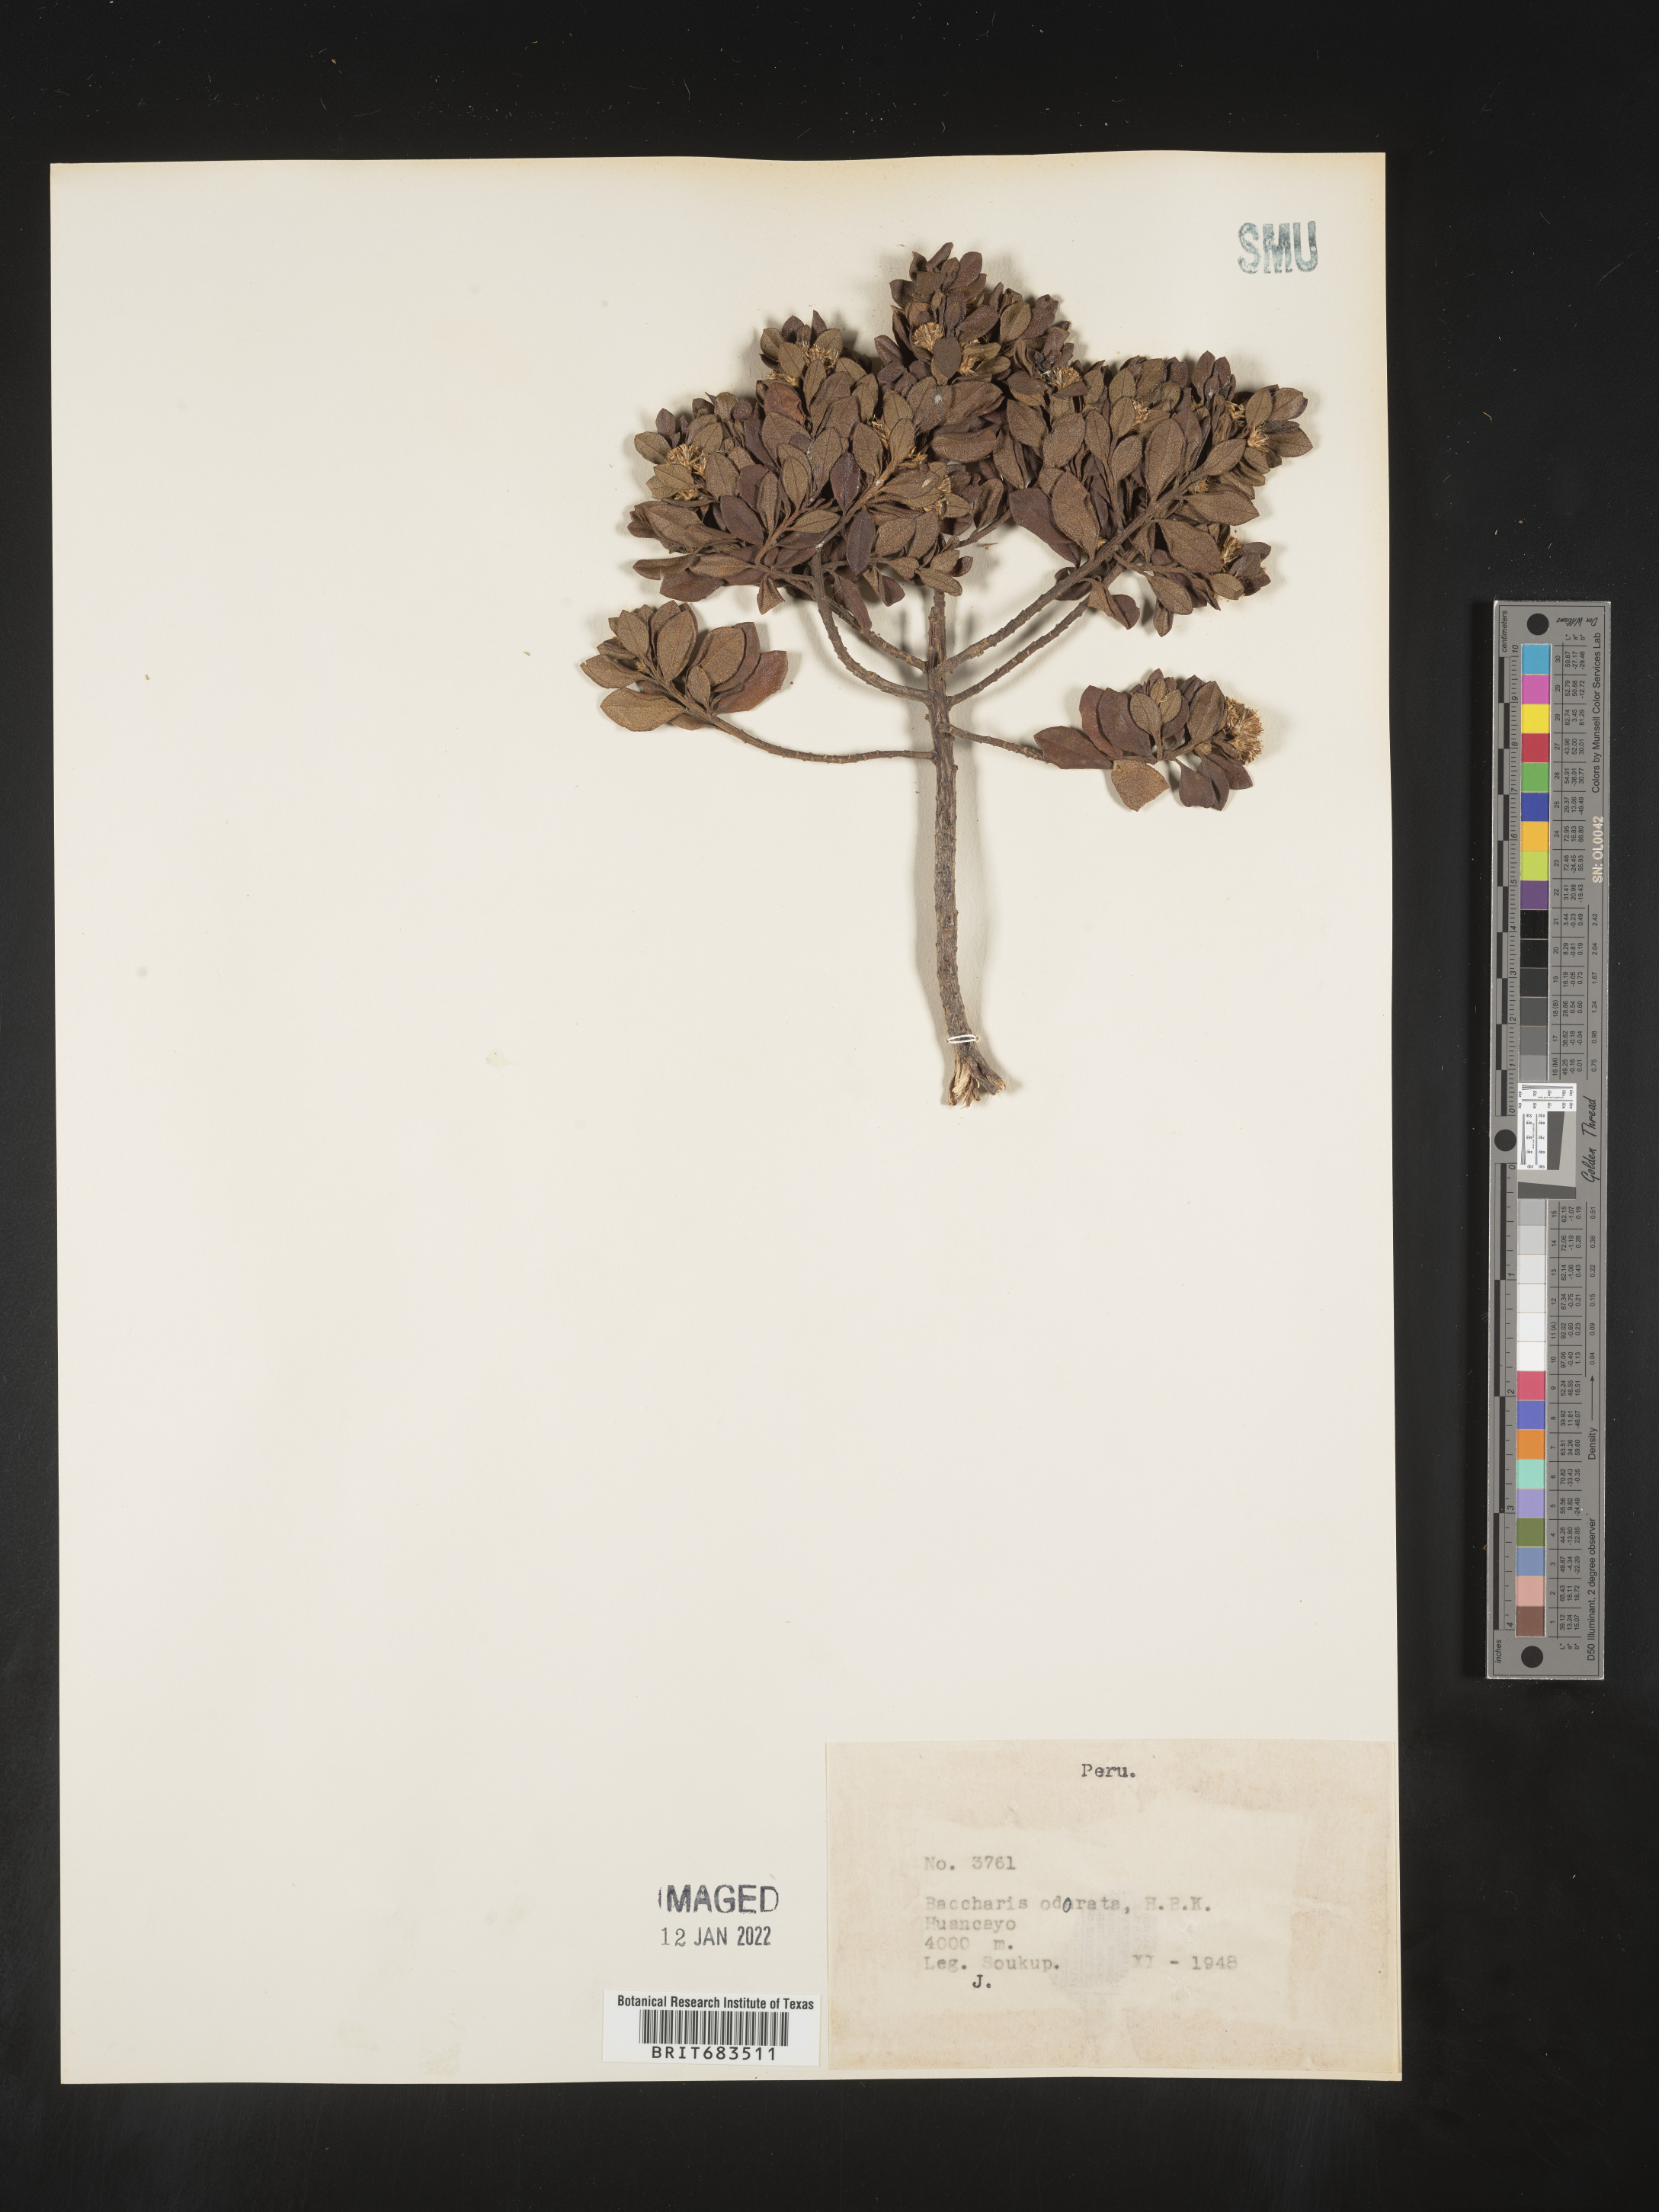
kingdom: Plantae
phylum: Tracheophyta
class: Magnoliopsida
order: Asterales
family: Asteraceae
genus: Baccharis
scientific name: Baccharis
